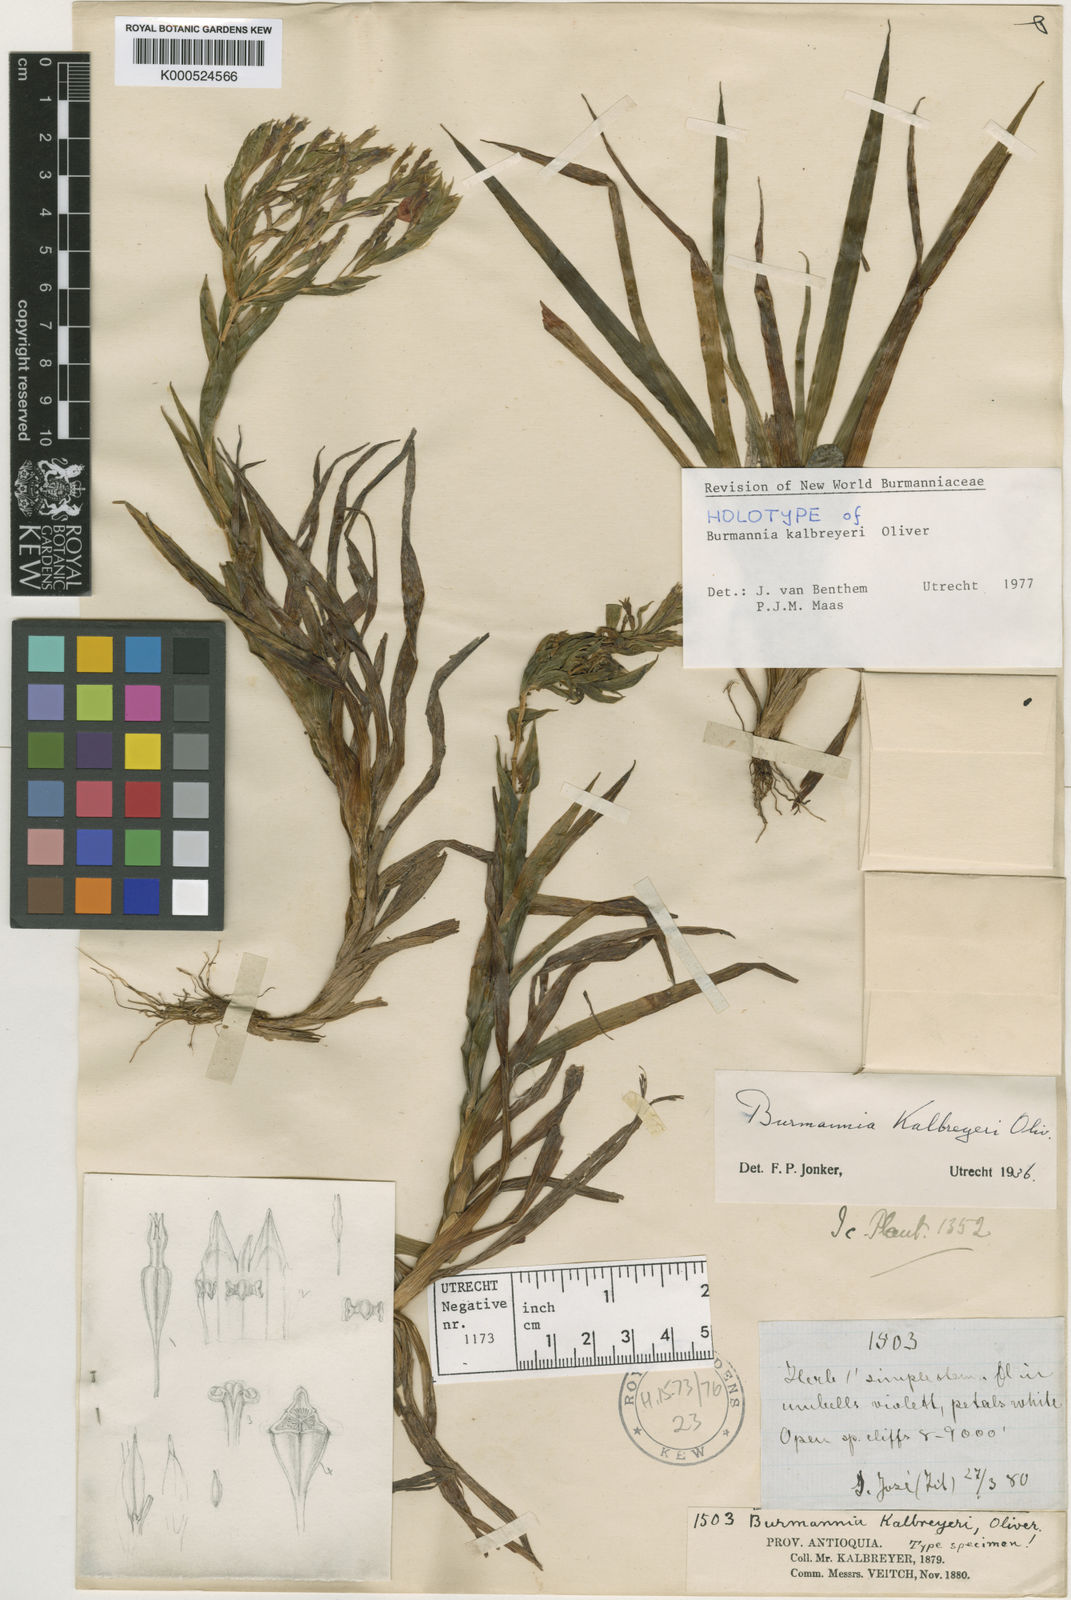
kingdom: Plantae
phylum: Tracheophyta
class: Liliopsida
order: Dioscoreales
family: Burmanniaceae
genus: Burmannia
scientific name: Burmannia kalbreyeri
